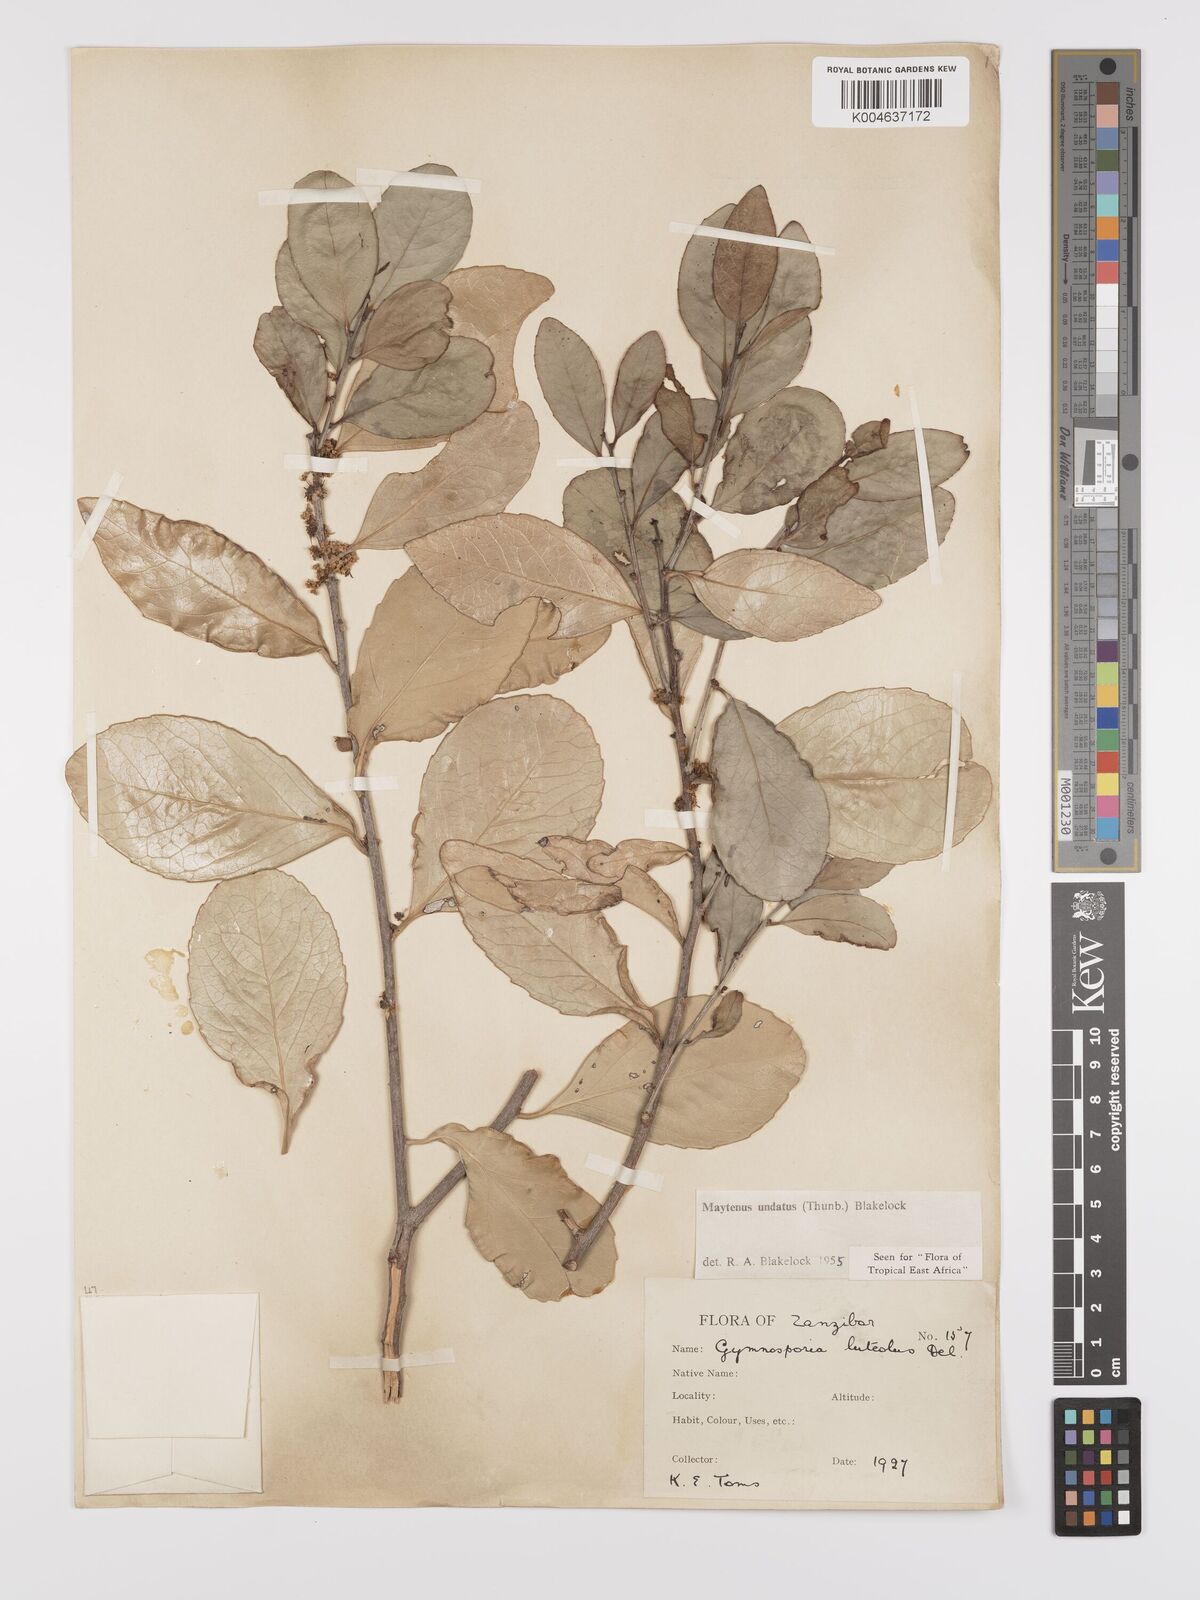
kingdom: Plantae
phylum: Tracheophyta
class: Magnoliopsida
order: Celastrales
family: Celastraceae
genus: Gymnosporia
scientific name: Gymnosporia undata
